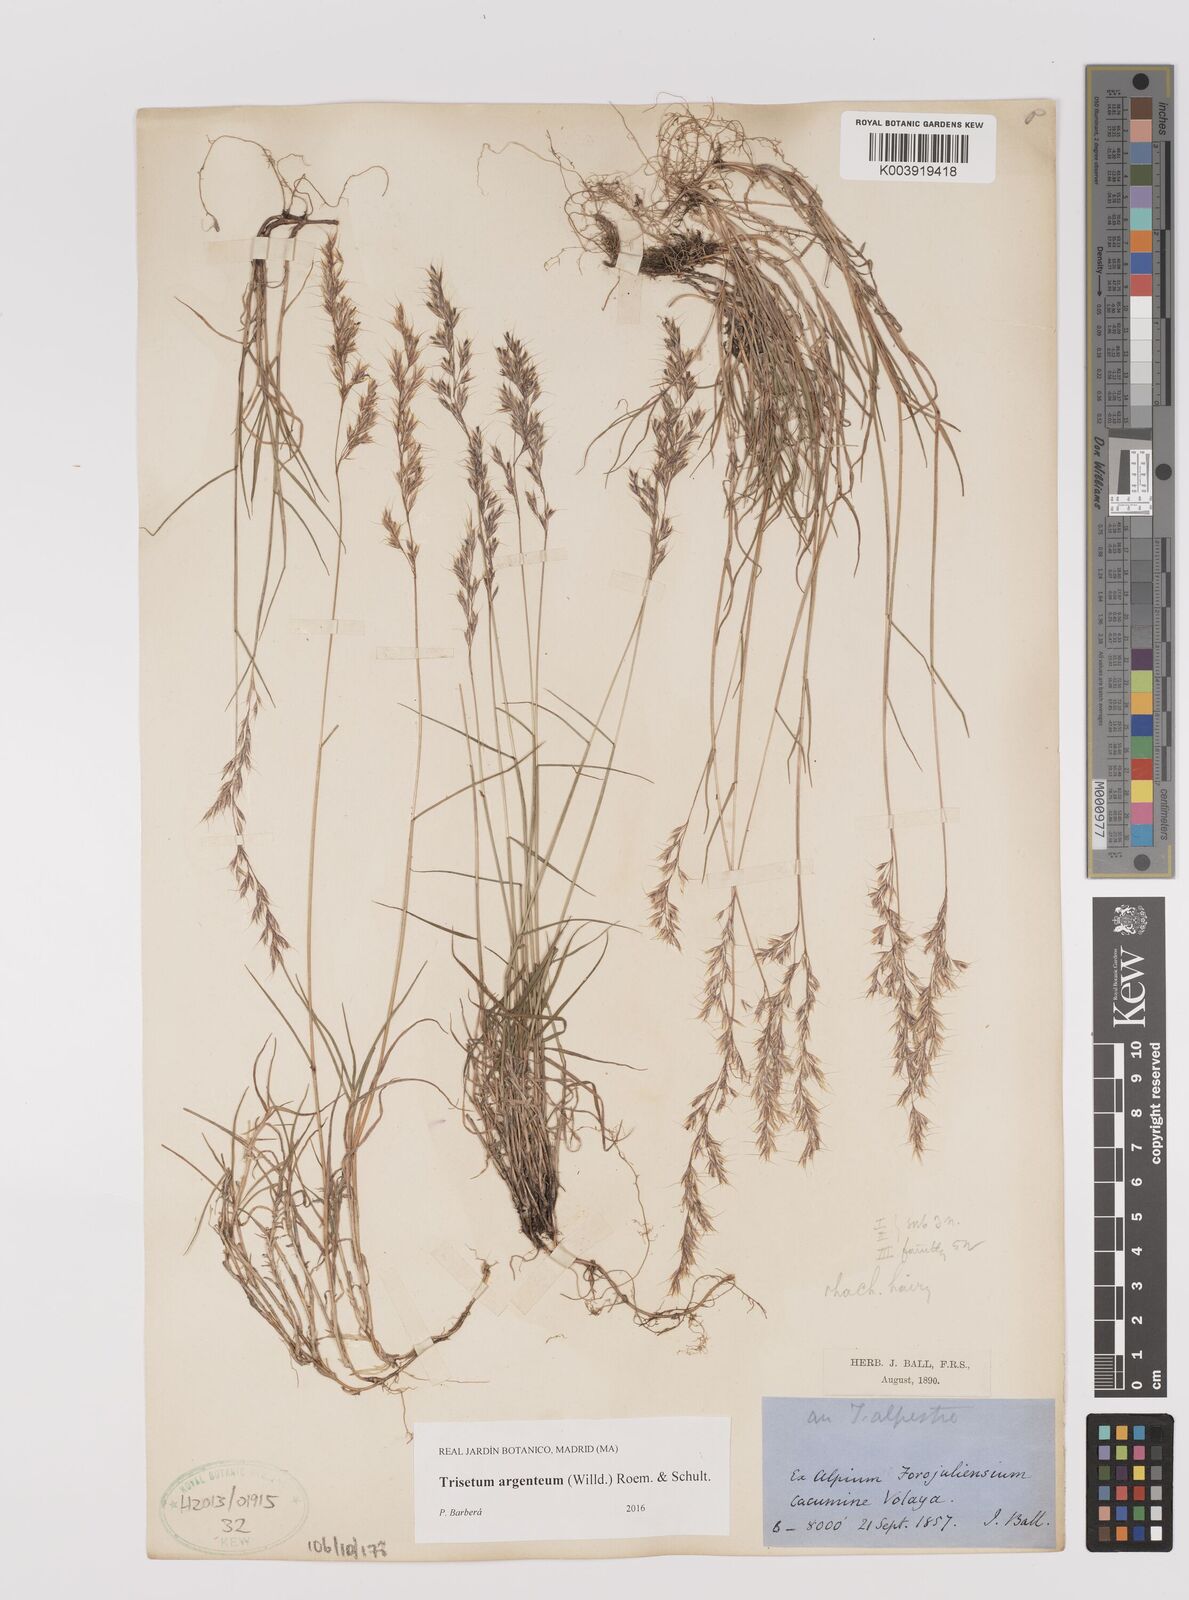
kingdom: Plantae
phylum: Tracheophyta
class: Liliopsida
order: Poales
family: Poaceae
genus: Trisetum
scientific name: Trisetum argenteum
